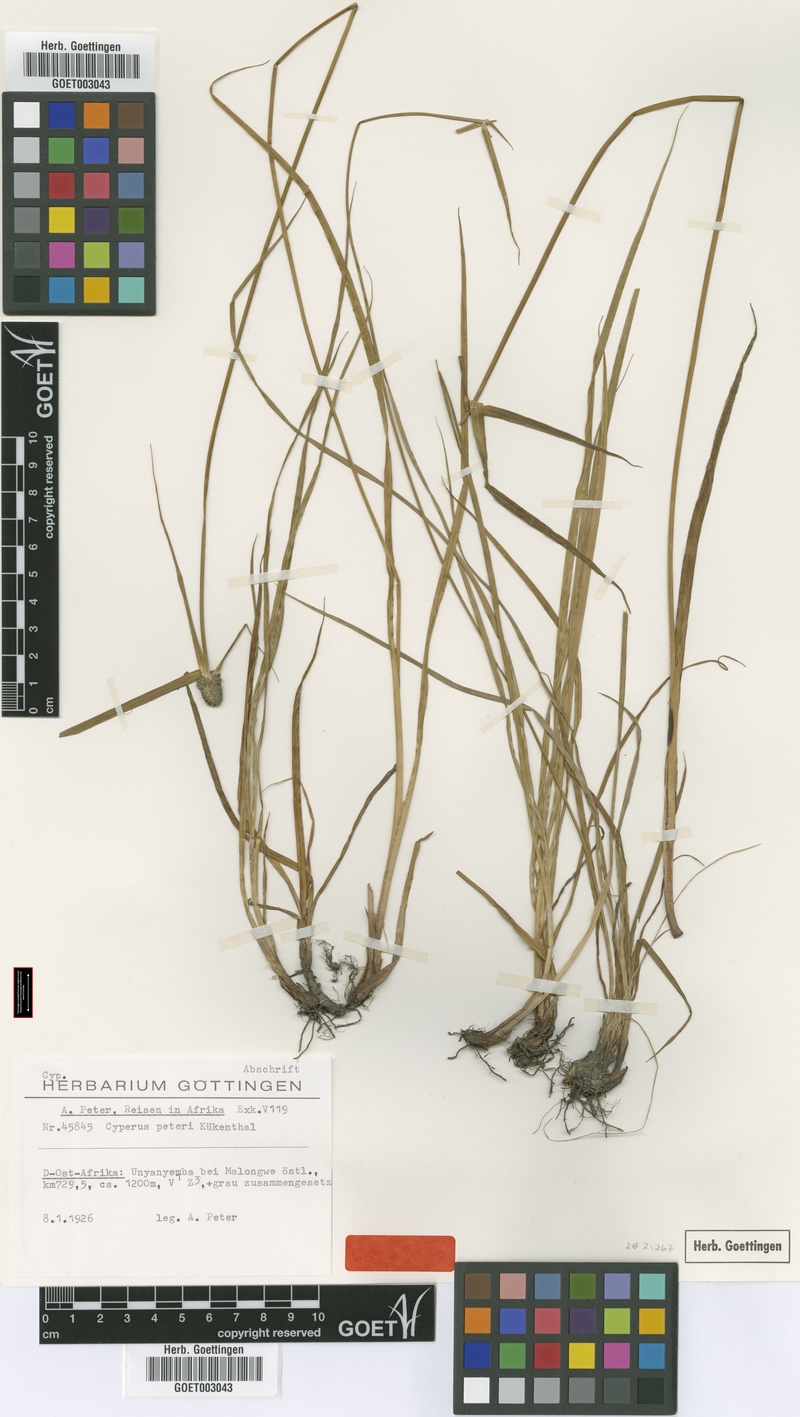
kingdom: Plantae
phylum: Tracheophyta
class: Liliopsida
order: Poales
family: Cyperaceae
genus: Cyperus
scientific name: Cyperus peteri
